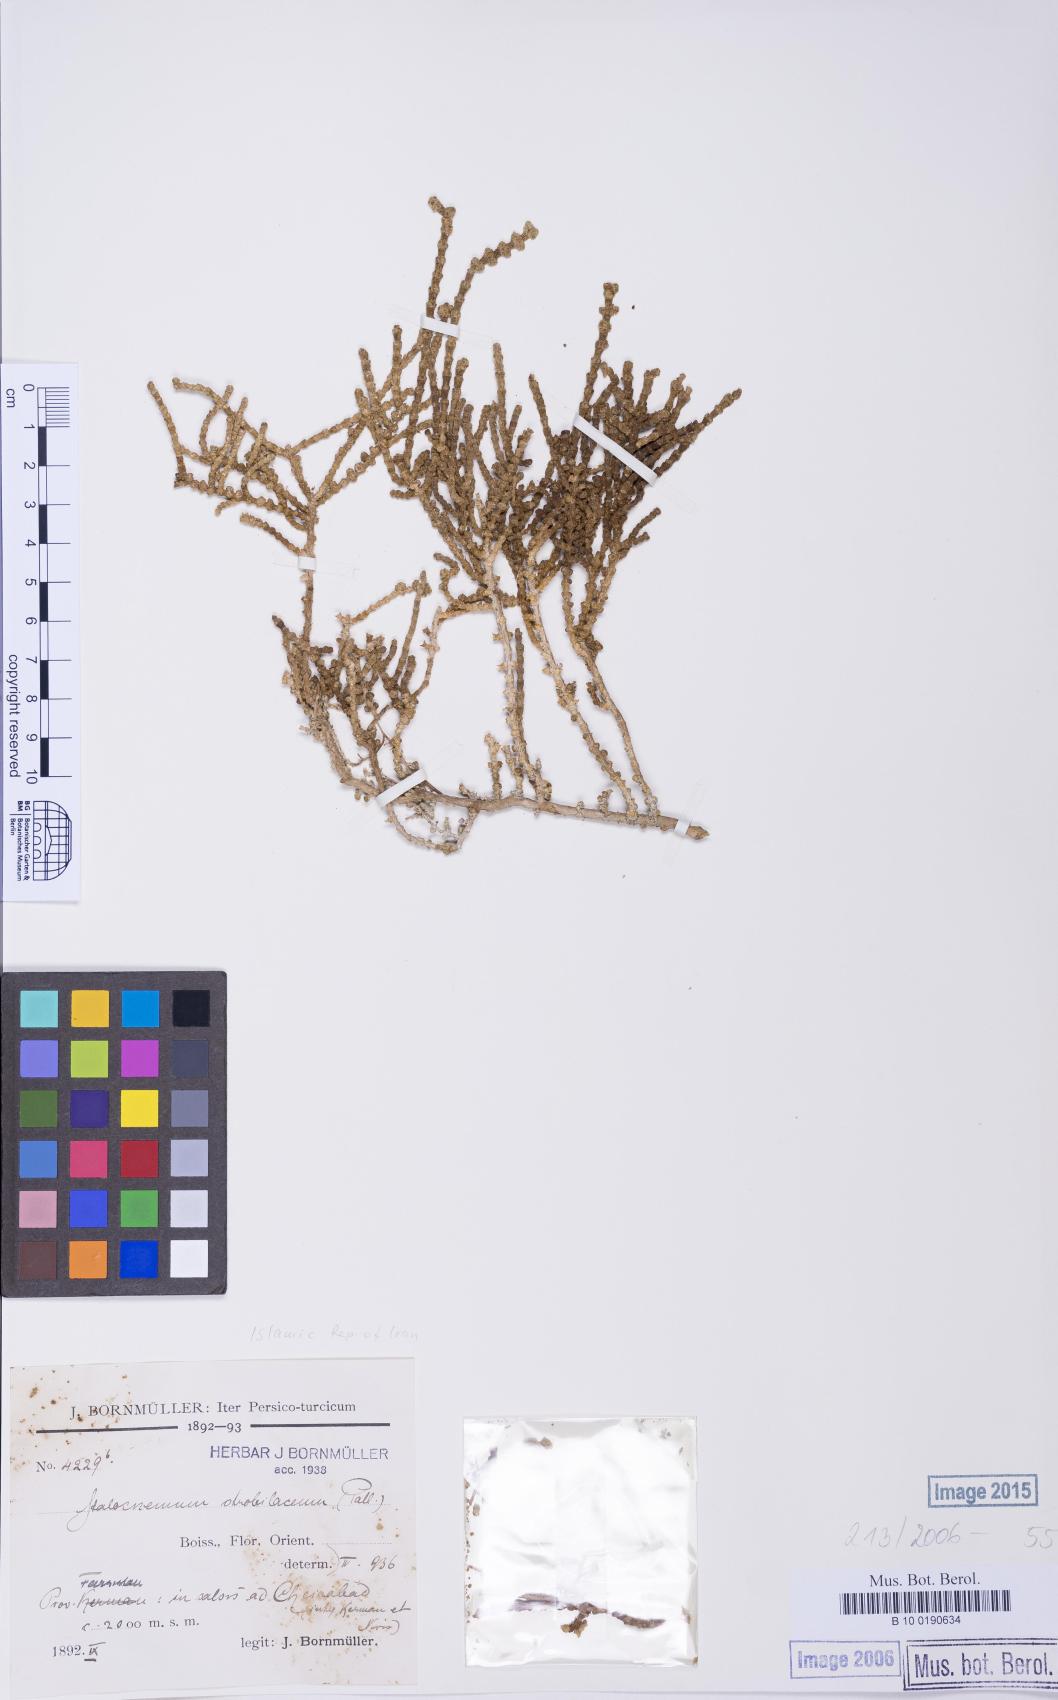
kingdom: Plantae
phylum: Tracheophyta
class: Magnoliopsida
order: Caryophyllales
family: Amaranthaceae
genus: Halocnemum
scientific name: Halocnemum strobilaceum
